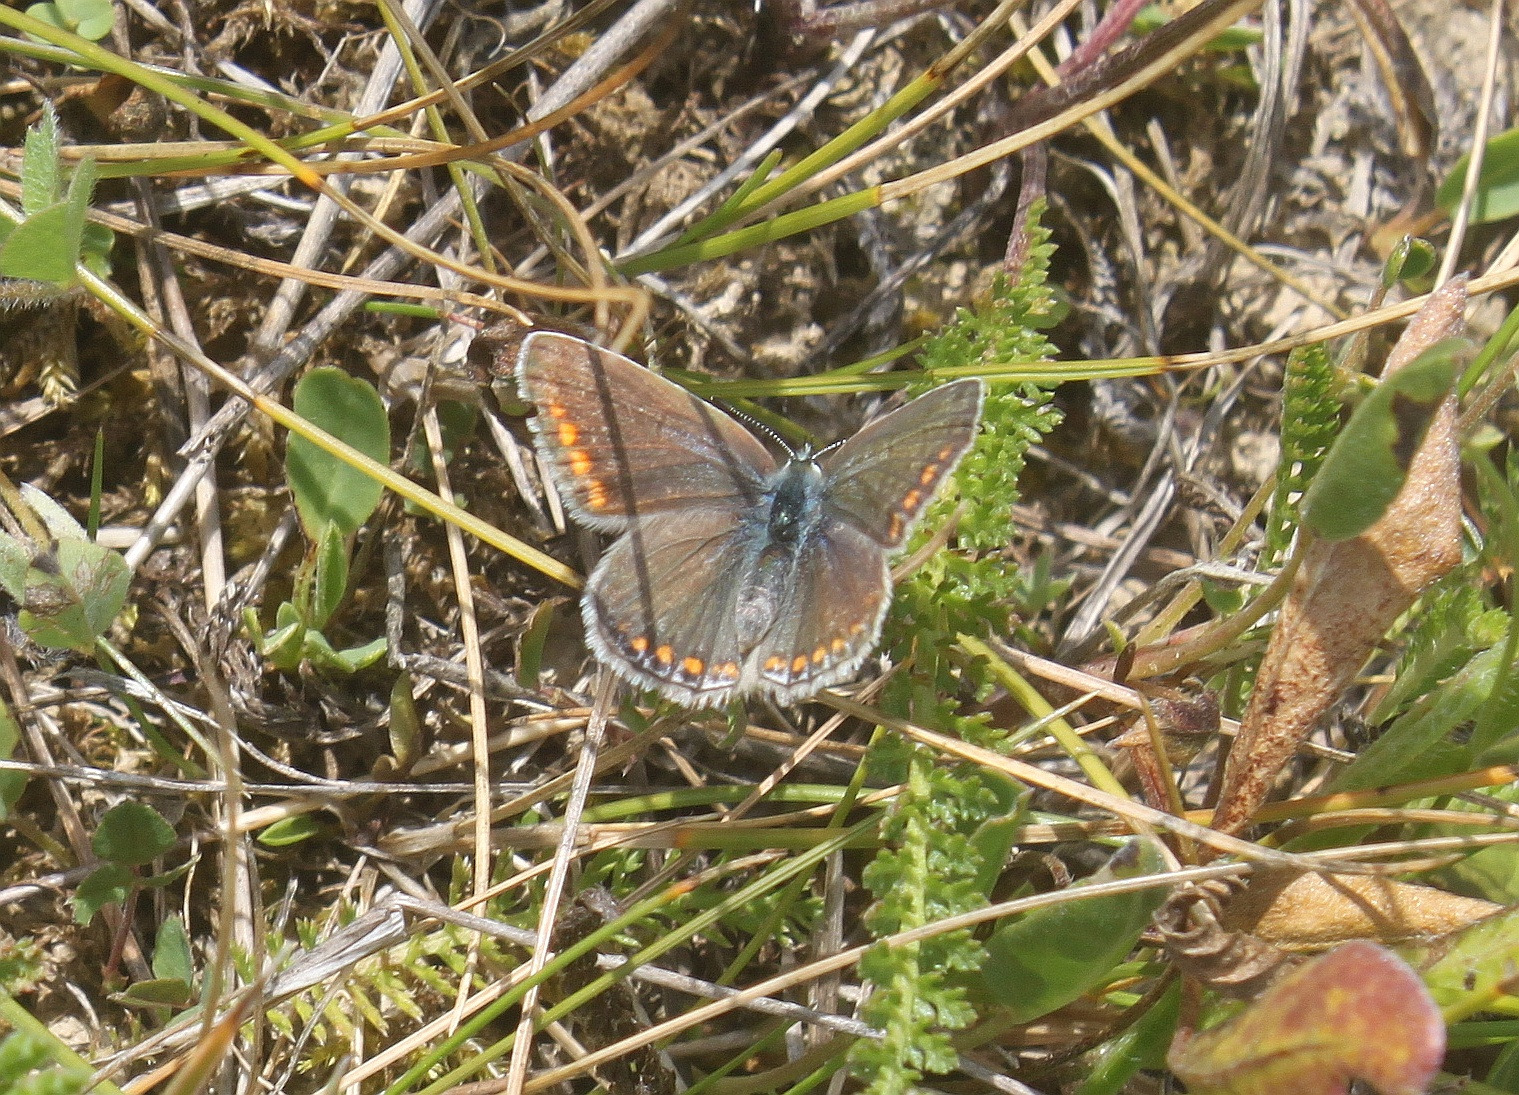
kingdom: Animalia
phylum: Arthropoda
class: Insecta
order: Lepidoptera
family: Lycaenidae
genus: Polyommatus
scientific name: Polyommatus icarus
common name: Almindelig blåfugl
